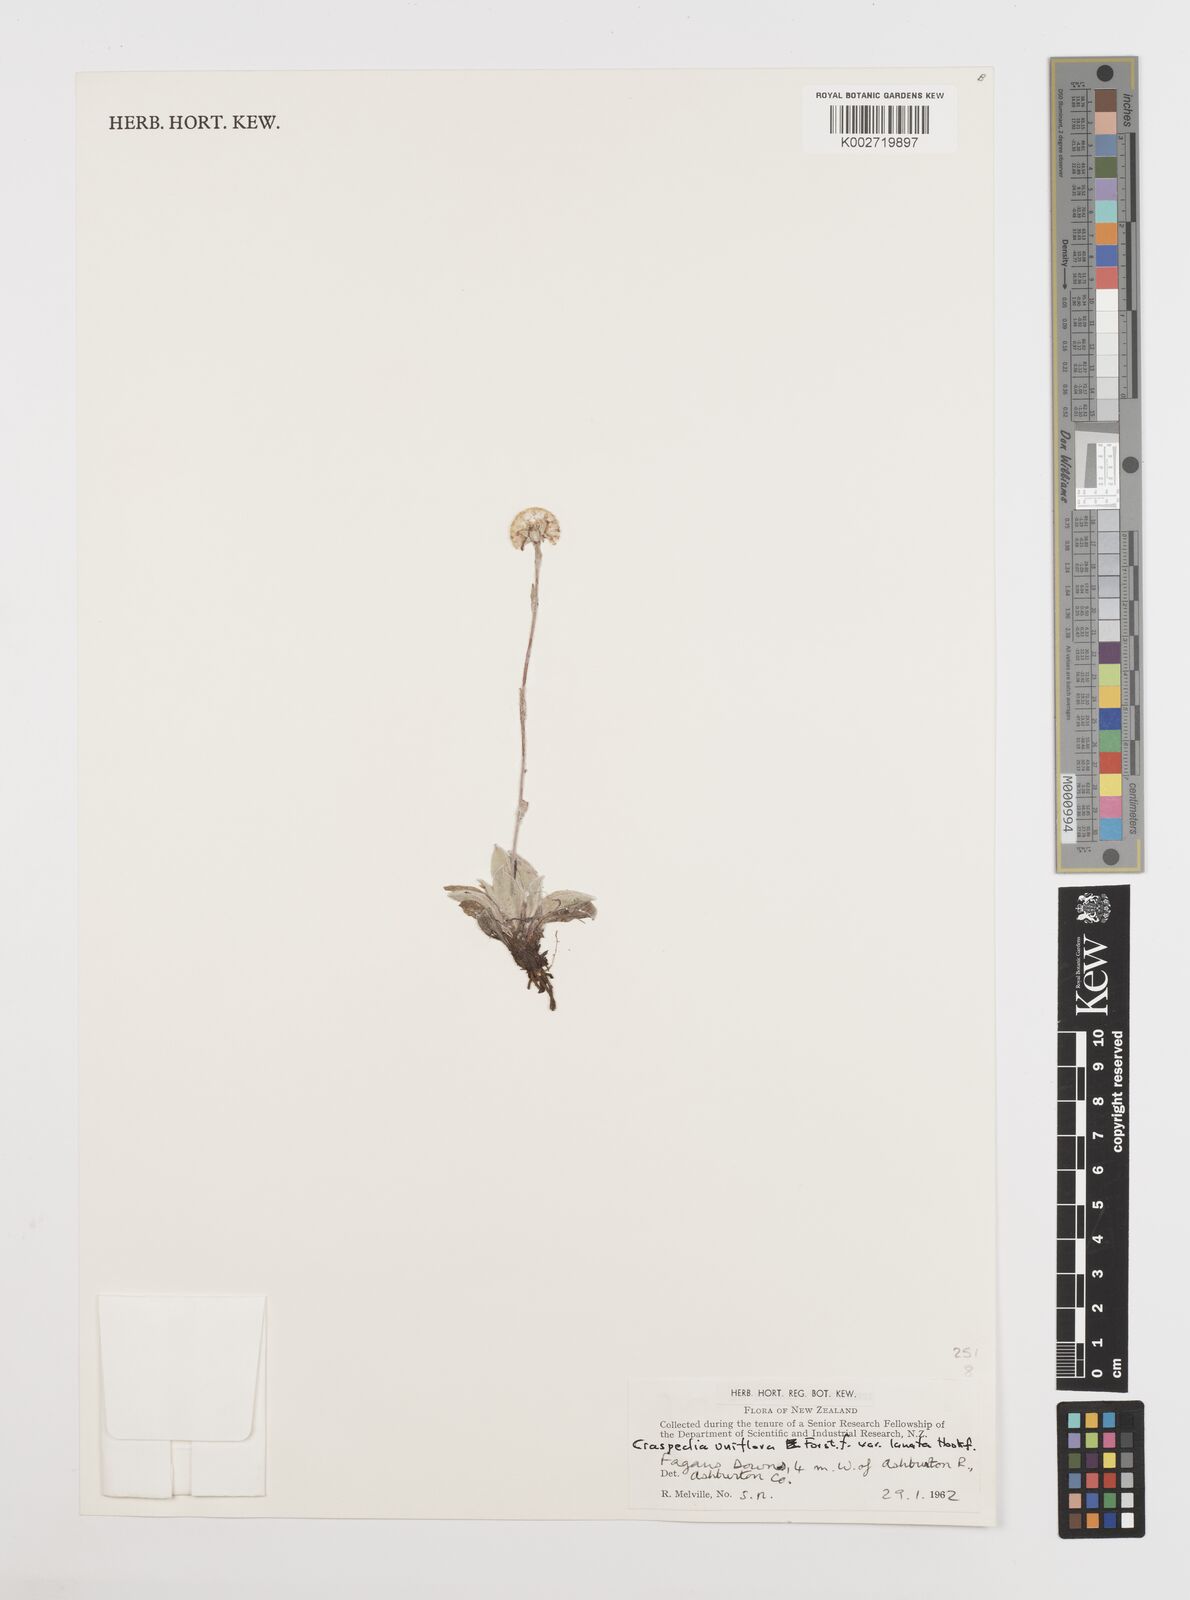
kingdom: Plantae
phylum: Tracheophyta
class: Magnoliopsida
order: Asterales
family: Asteraceae
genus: Craspedia
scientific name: Craspedia uniflora
